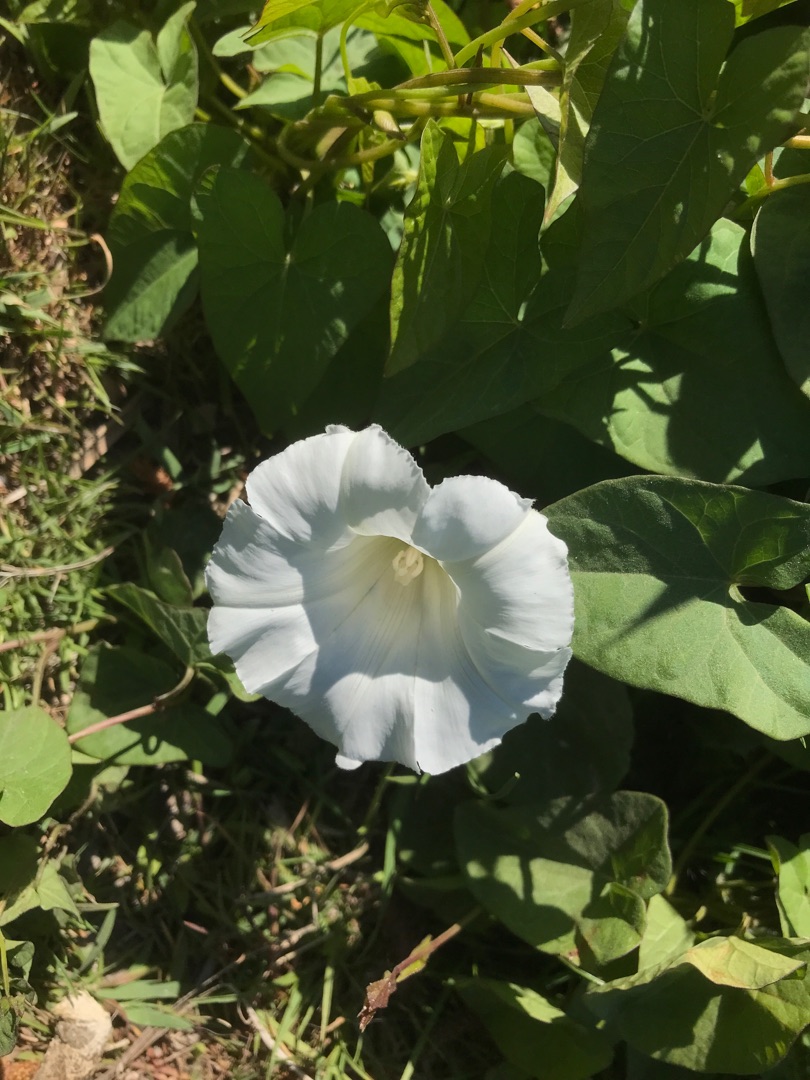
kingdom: Plantae
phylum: Tracheophyta
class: Magnoliopsida
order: Solanales
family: Convolvulaceae
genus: Calystegia
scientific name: Calystegia sepium
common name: Gærde-snerle
